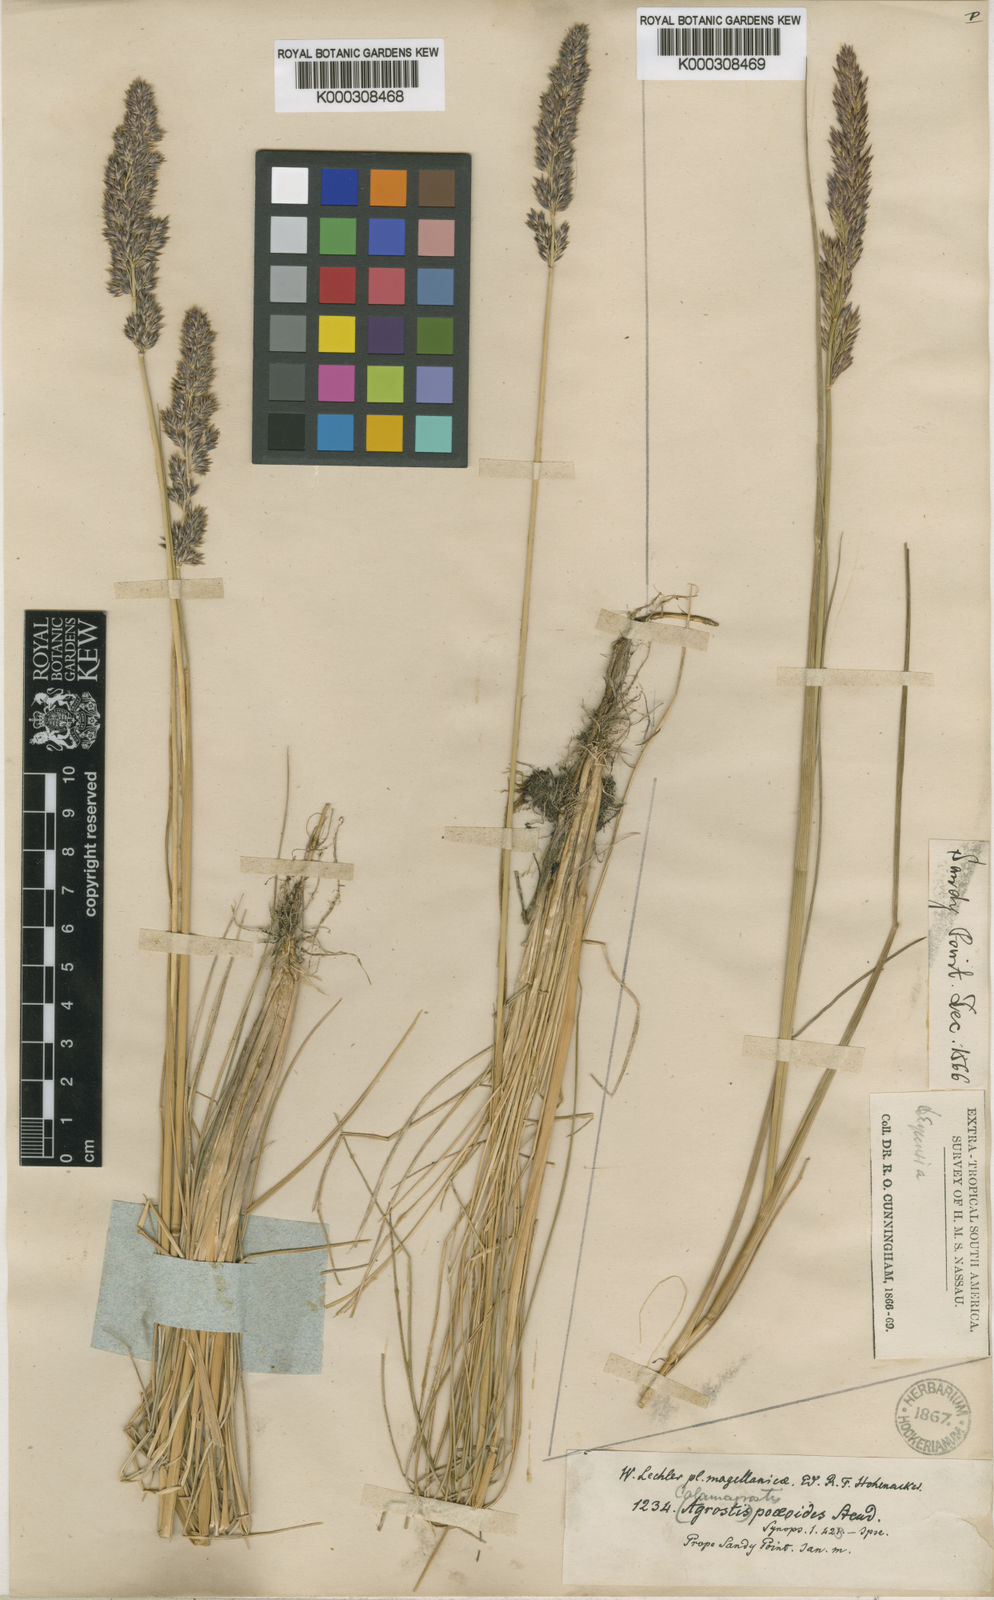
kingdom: Plantae
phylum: Tracheophyta
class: Liliopsida
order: Poales
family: Poaceae
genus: Calamagrostis
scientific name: Calamagrostis stricta
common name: Narrow small-reed
